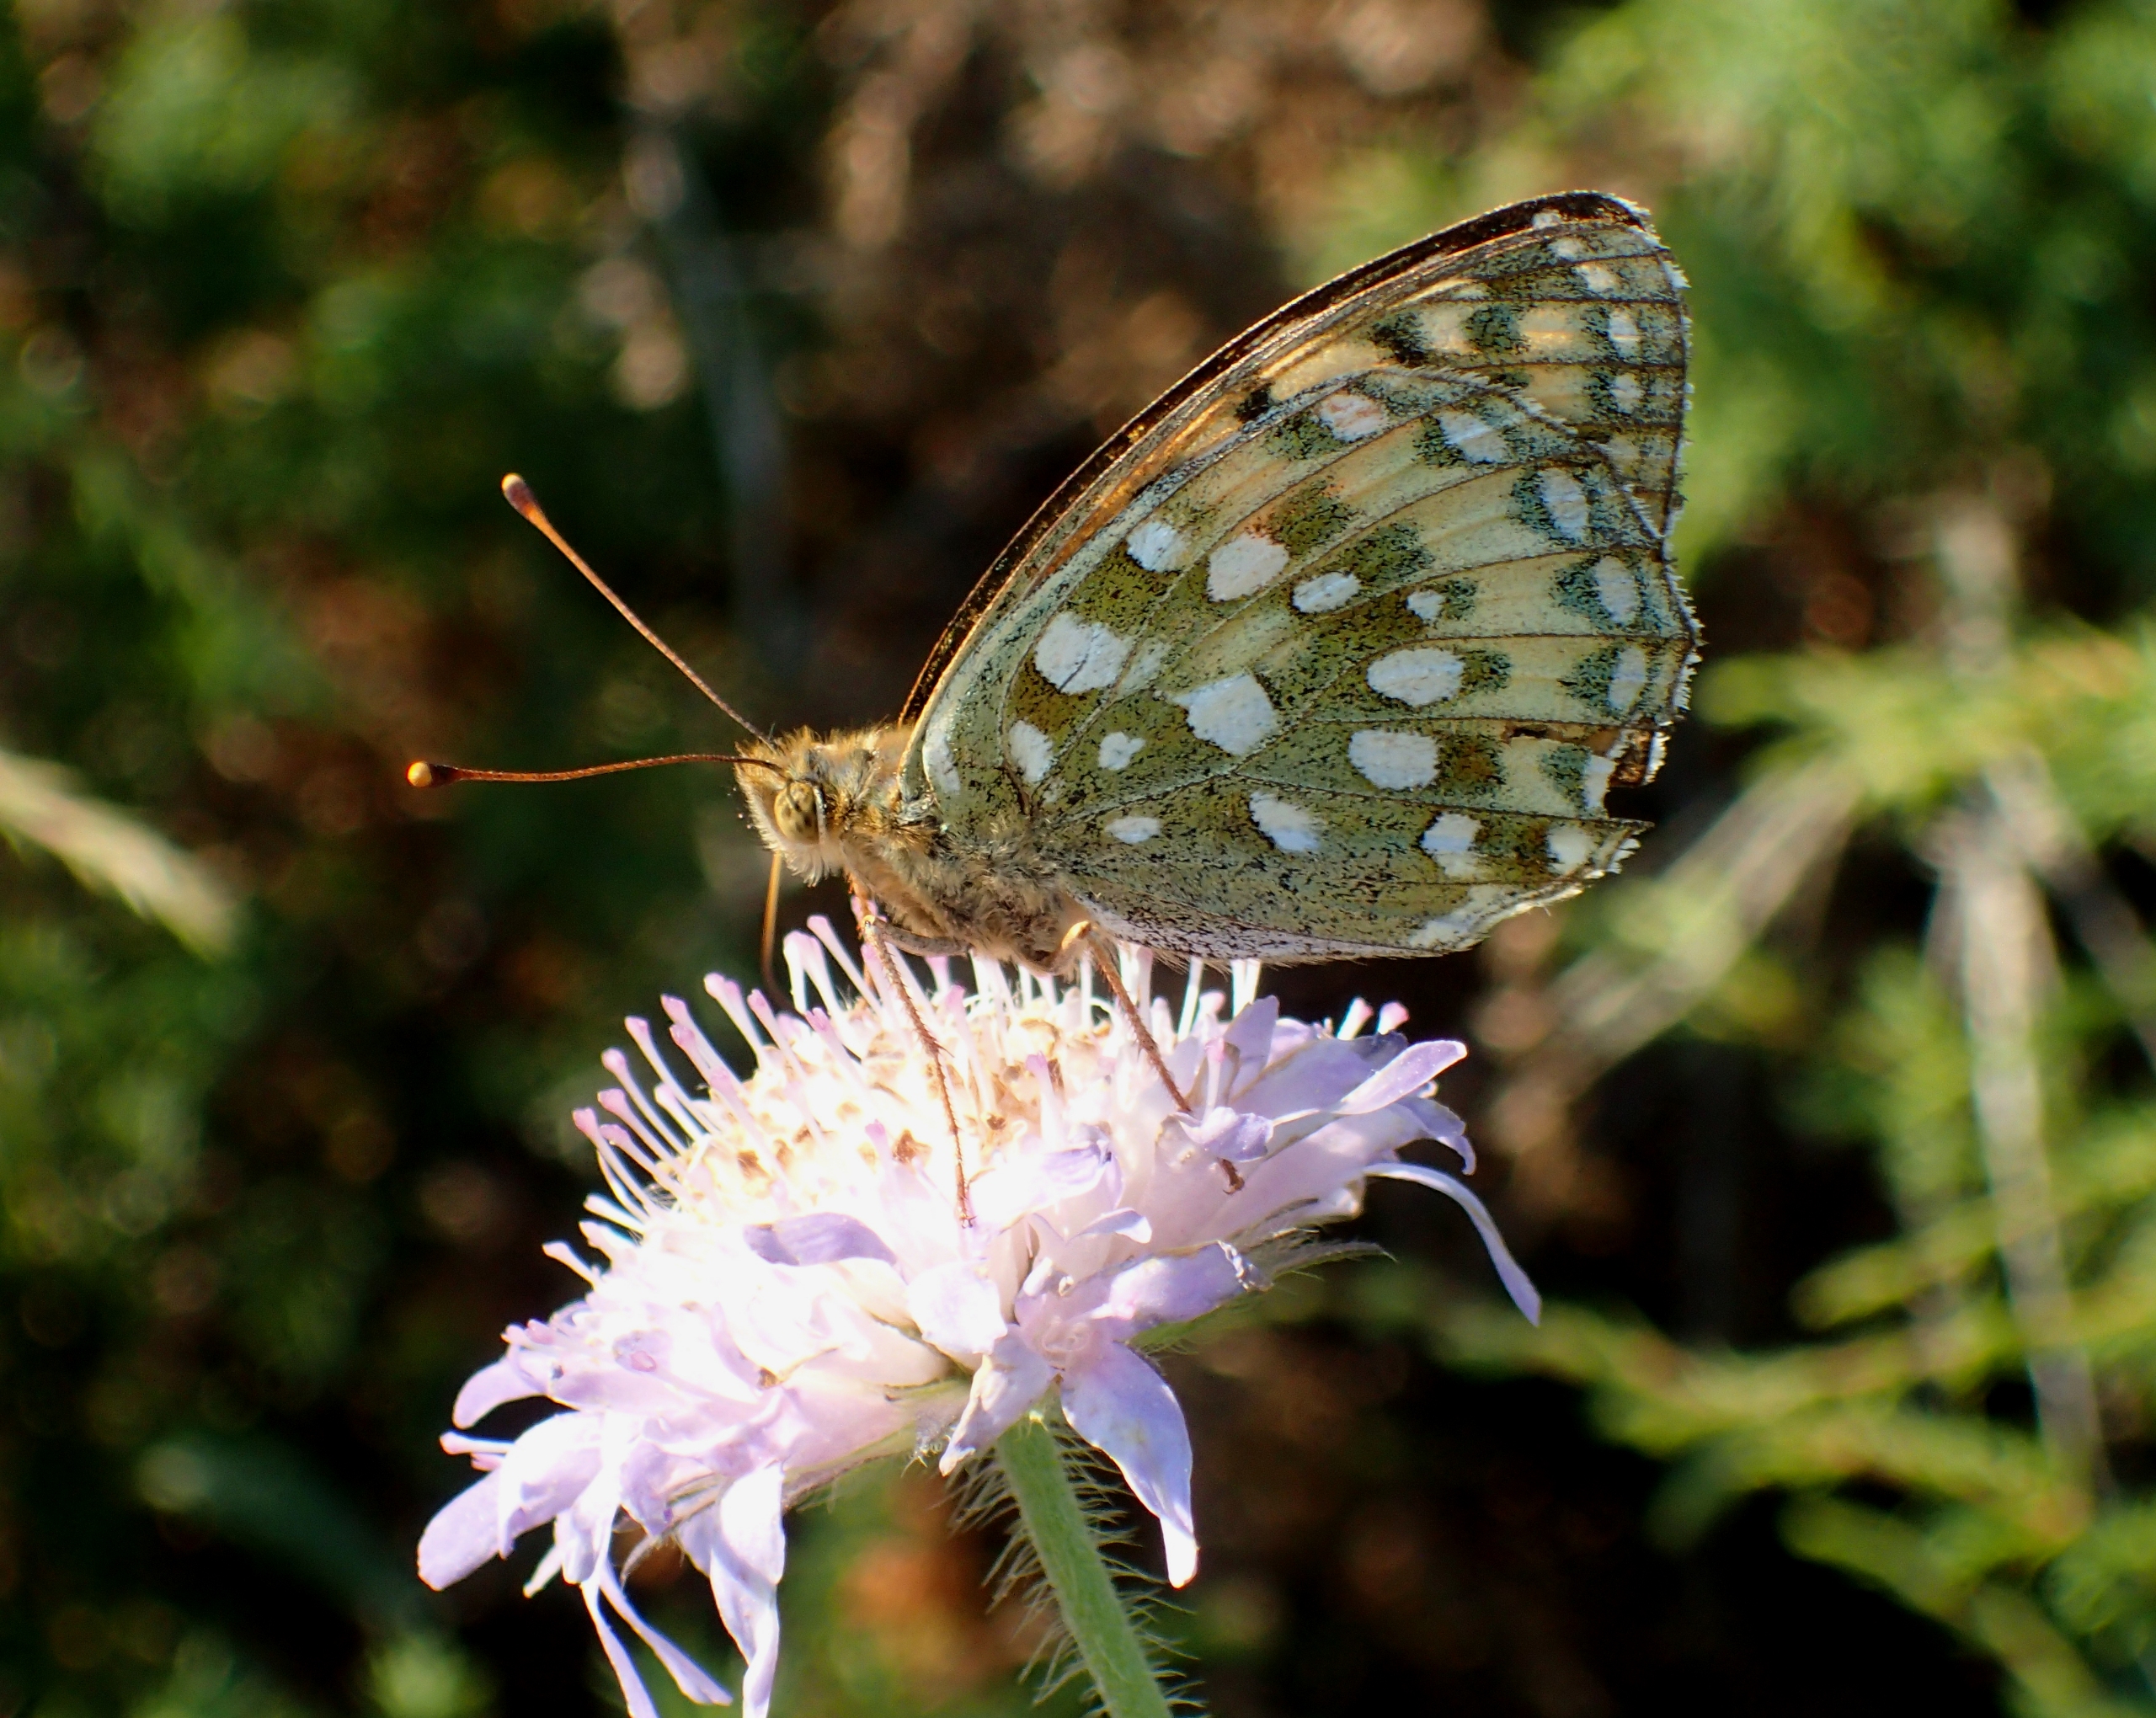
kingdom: Animalia
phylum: Arthropoda
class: Insecta
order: Lepidoptera
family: Nymphalidae
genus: Speyeria
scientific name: Speyeria aglaja
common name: Markperlemorsommerfugl
